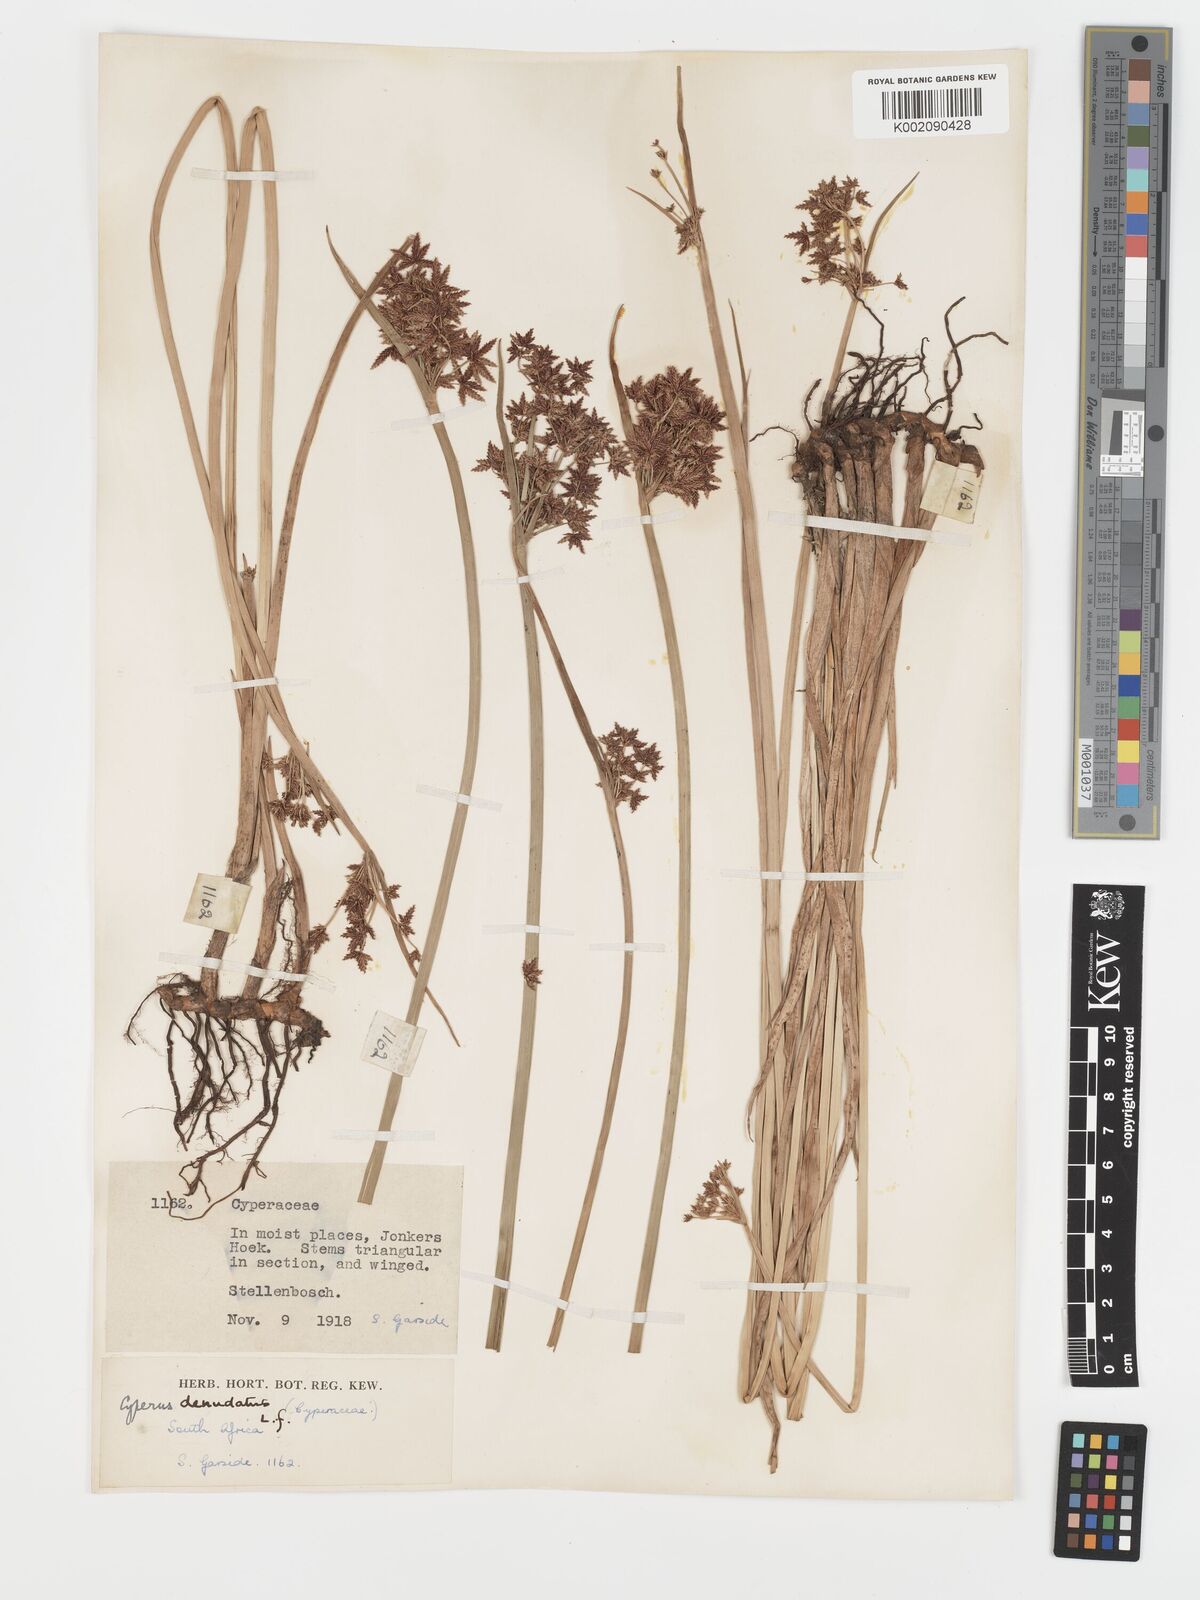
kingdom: Plantae
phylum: Tracheophyta
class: Liliopsida
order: Poales
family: Cyperaceae
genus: Cyperus
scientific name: Cyperus denudatus
